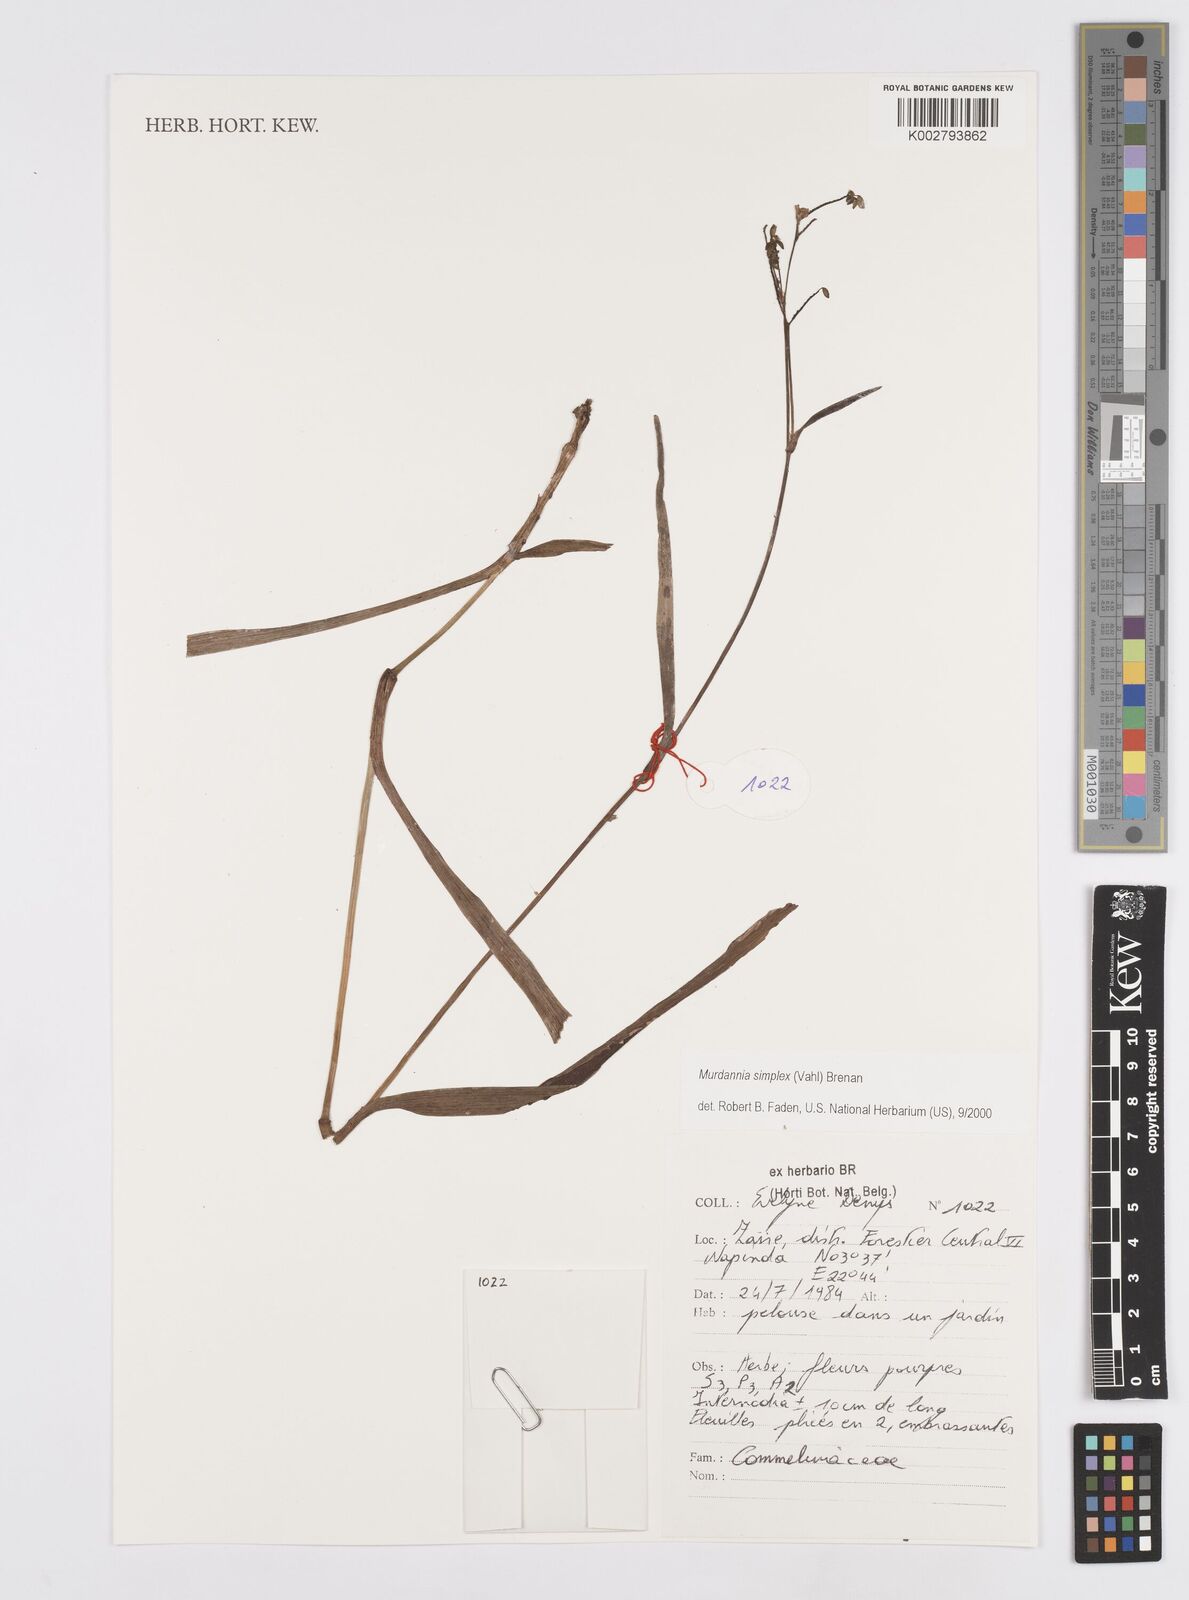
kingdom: Plantae
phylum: Tracheophyta
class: Liliopsida
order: Commelinales
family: Commelinaceae
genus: Murdannia
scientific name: Murdannia simplex
